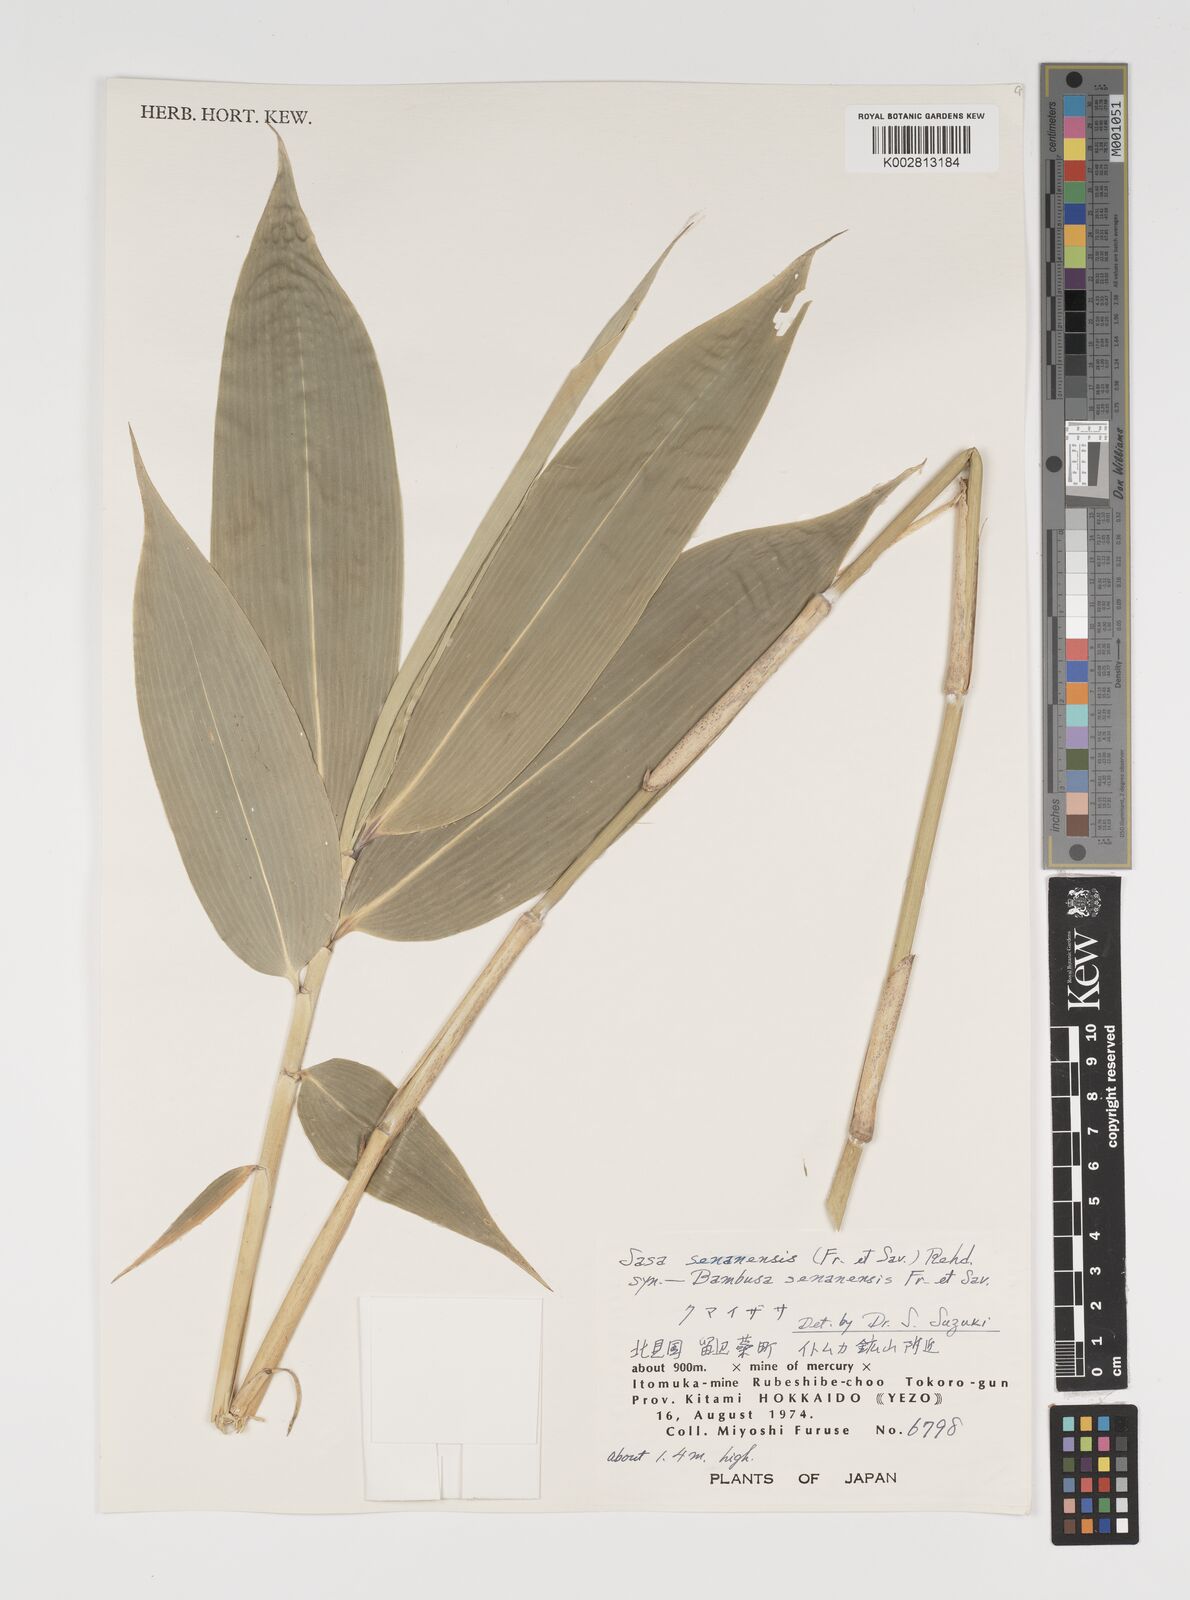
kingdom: Plantae
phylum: Tracheophyta
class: Liliopsida
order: Poales
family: Poaceae
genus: Sasa
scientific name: Sasa senanensis
